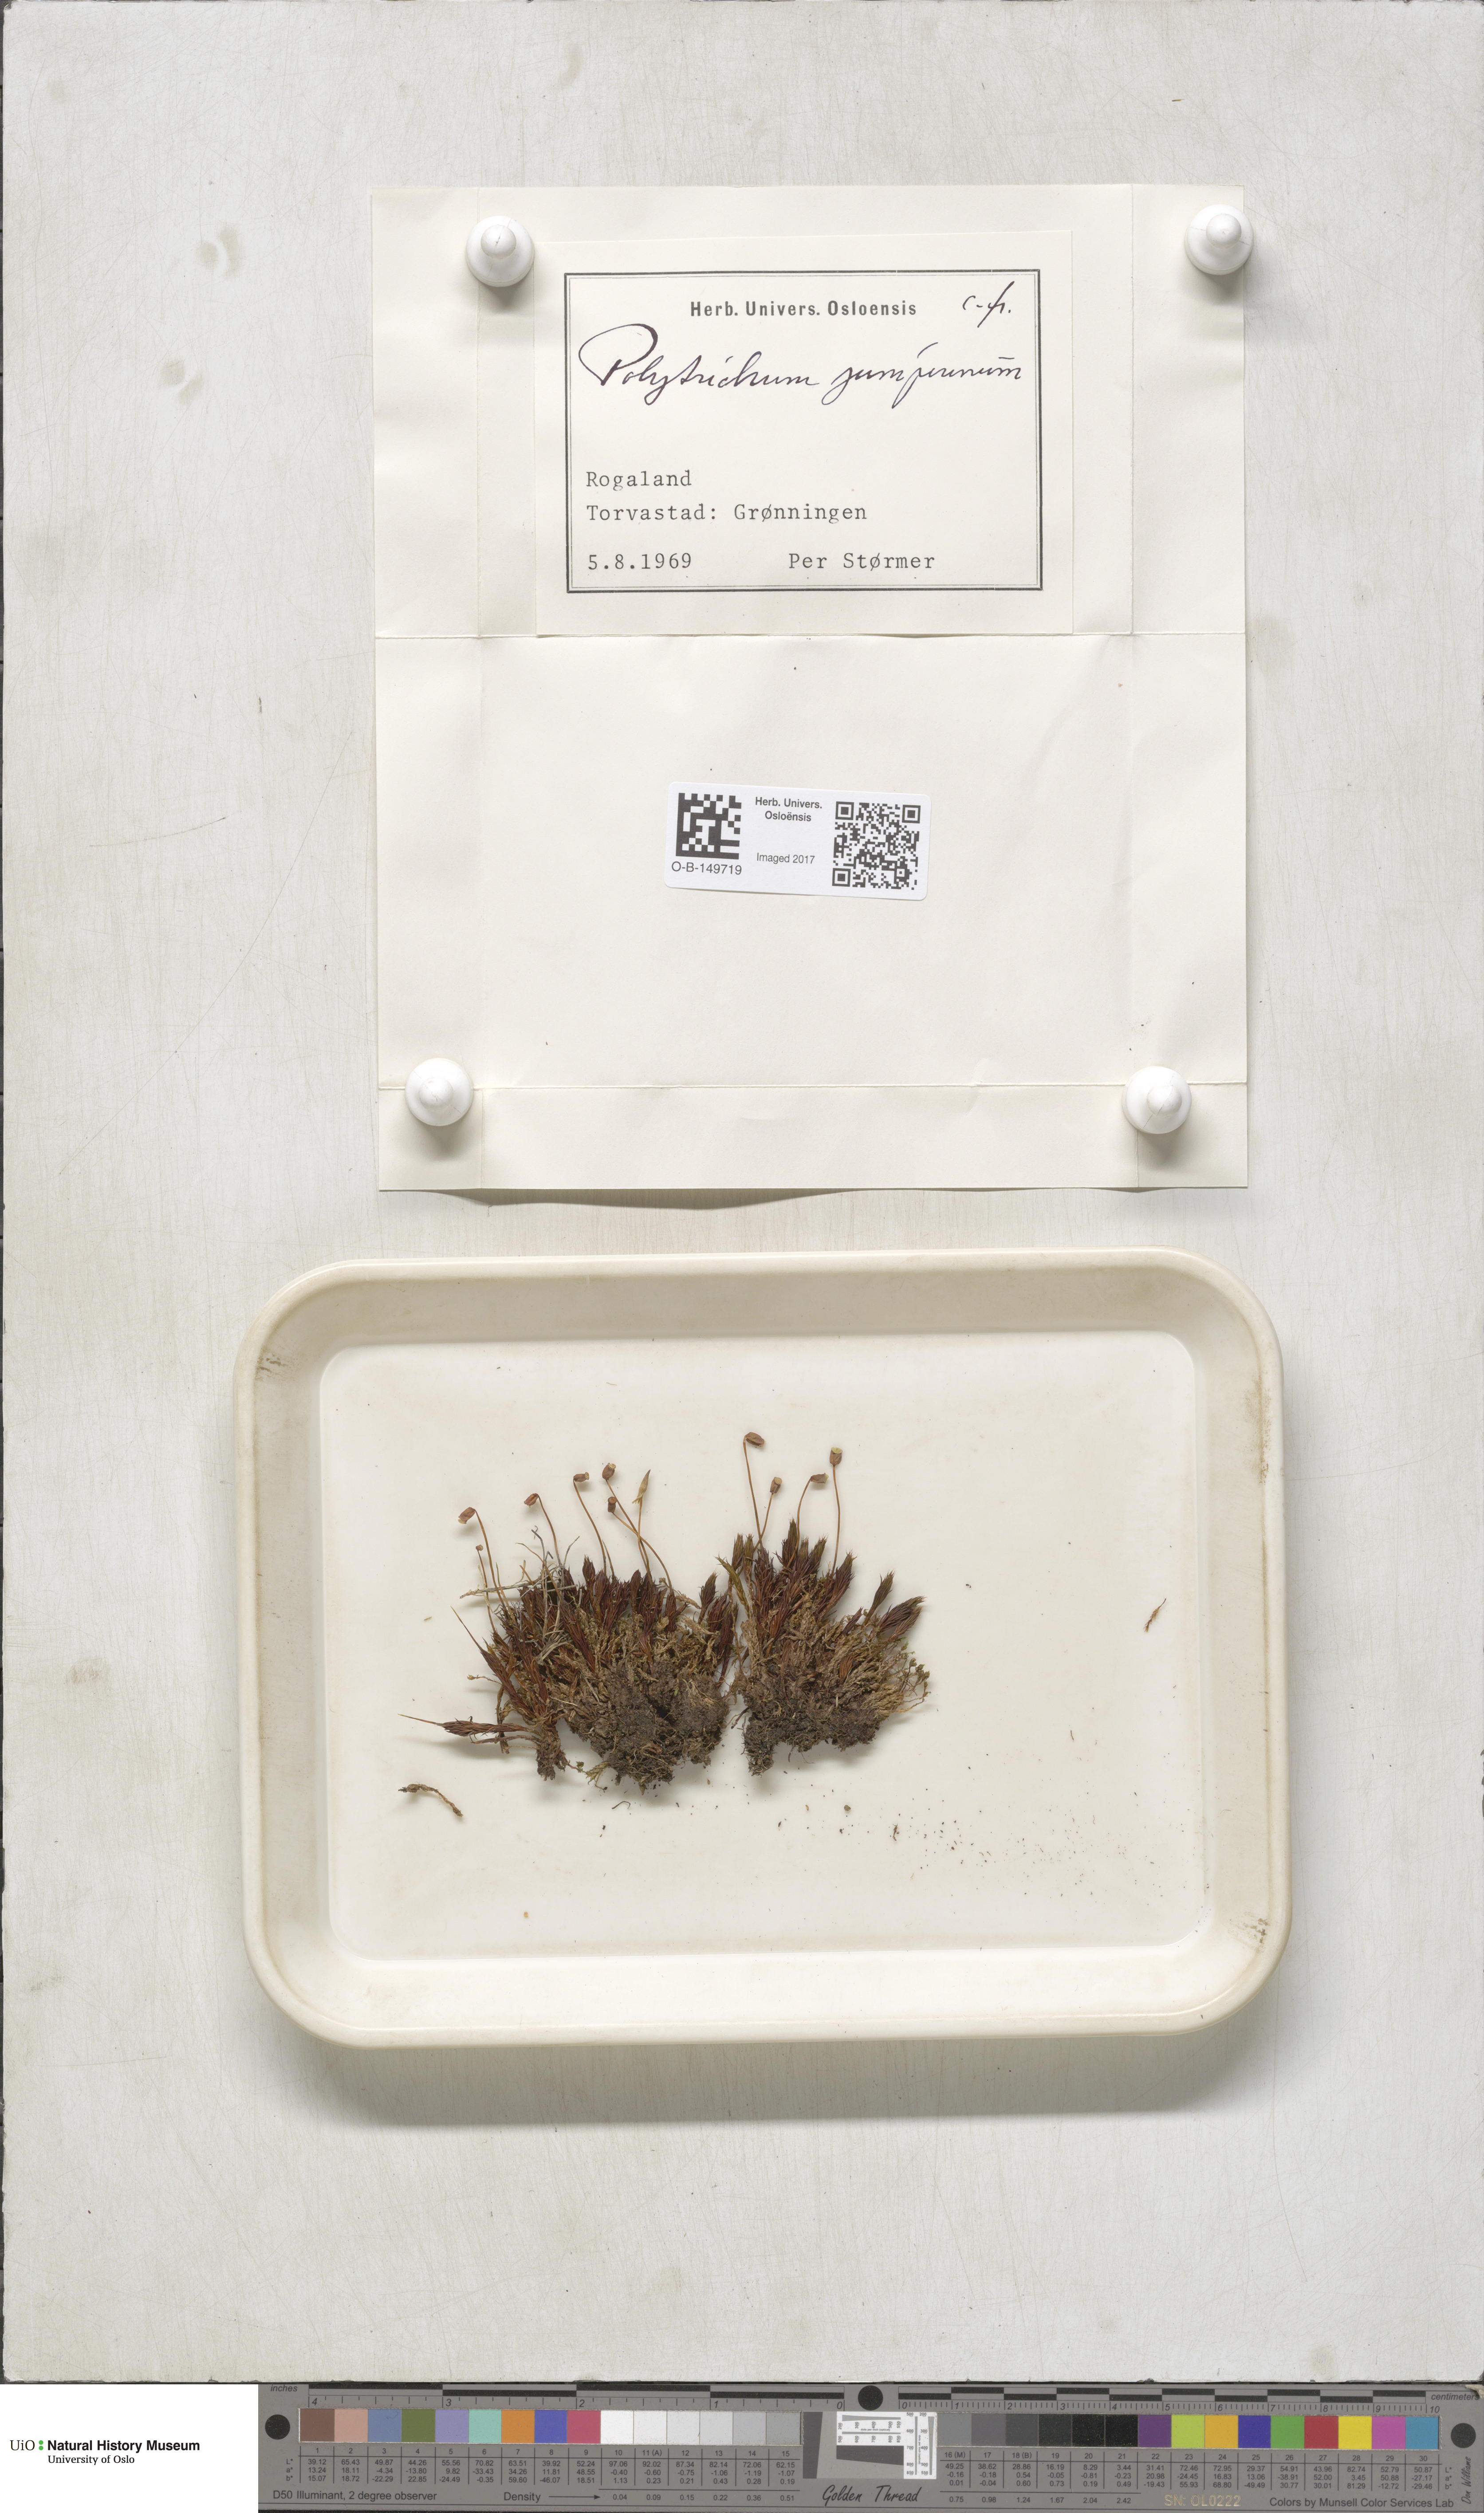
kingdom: Plantae
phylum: Bryophyta
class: Polytrichopsida
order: Polytrichales
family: Polytrichaceae
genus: Polytrichum
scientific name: Polytrichum juniperinum
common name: Juniper haircap moss
